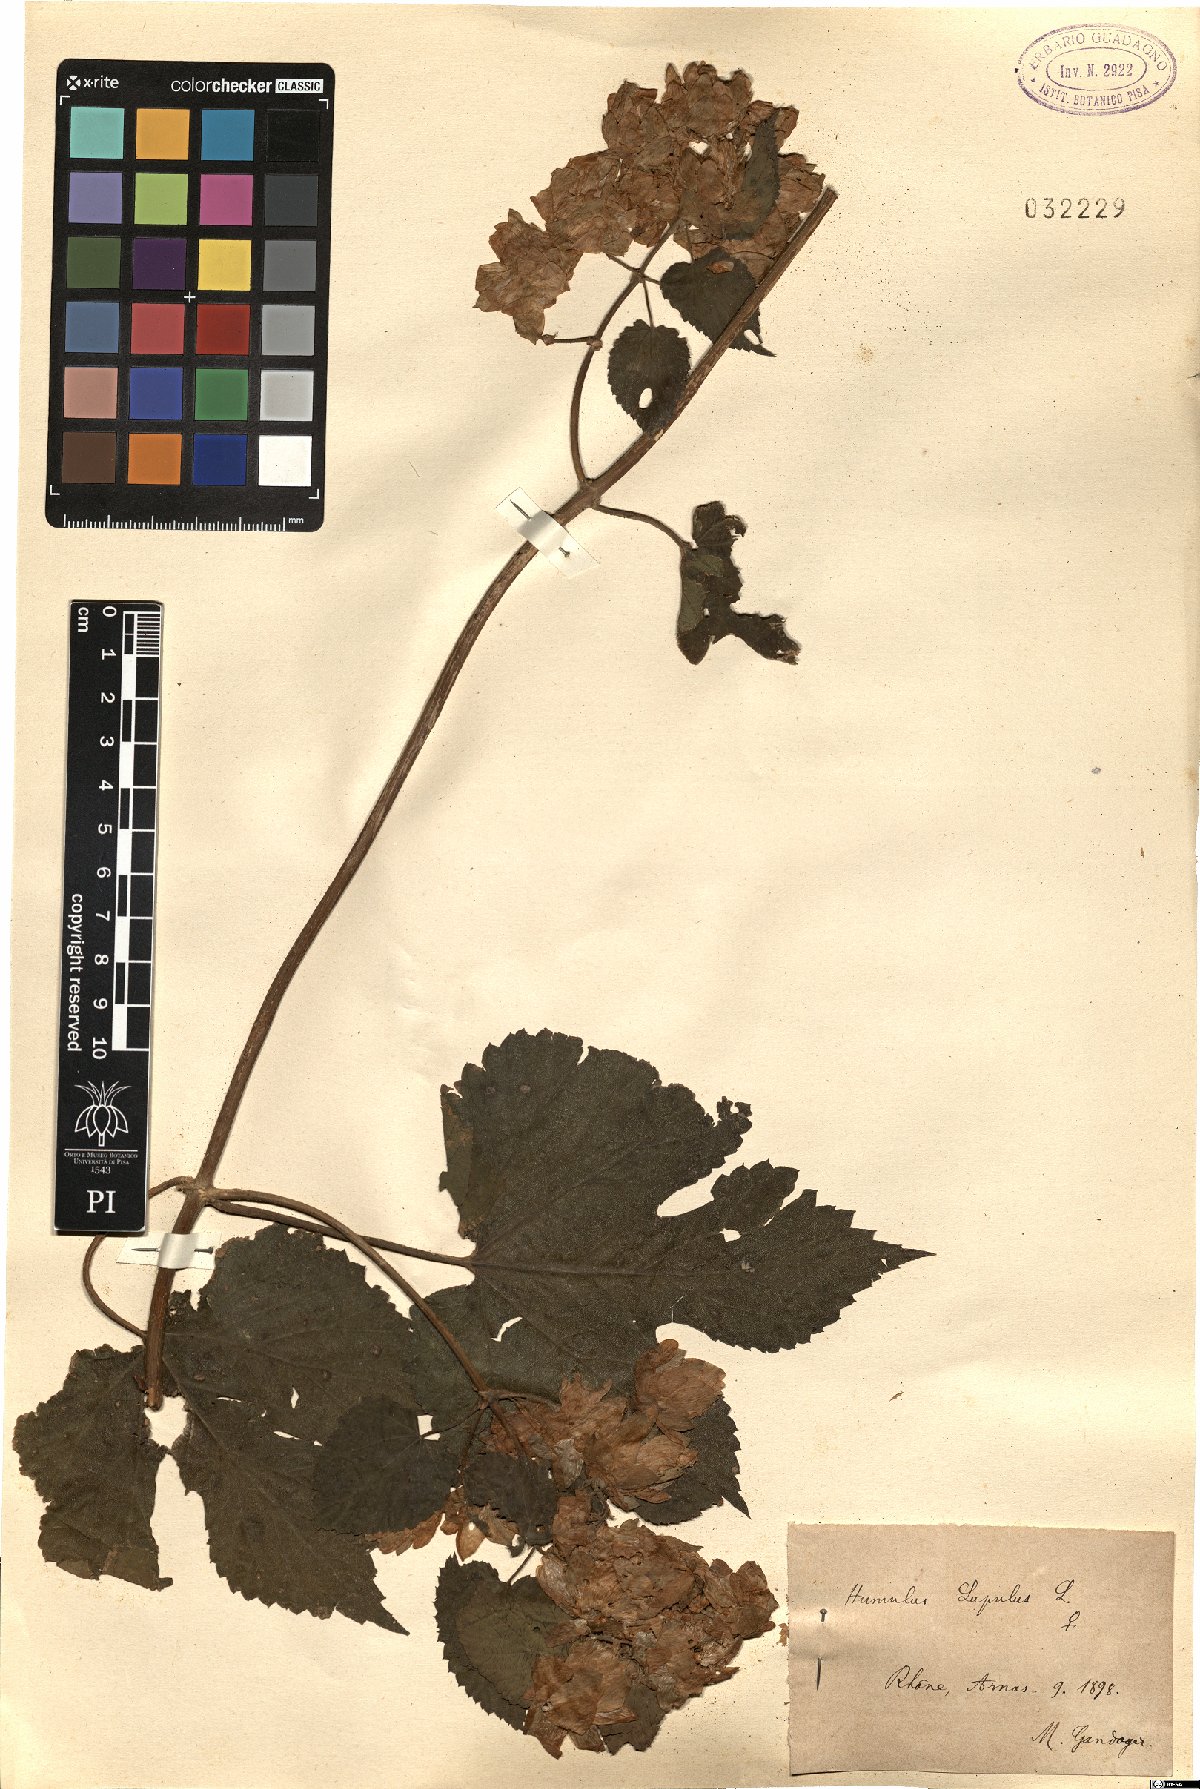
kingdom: Plantae
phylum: Tracheophyta
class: Magnoliopsida
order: Rosales
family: Cannabaceae
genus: Humulus
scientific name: Humulus lupulus
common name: Hop
